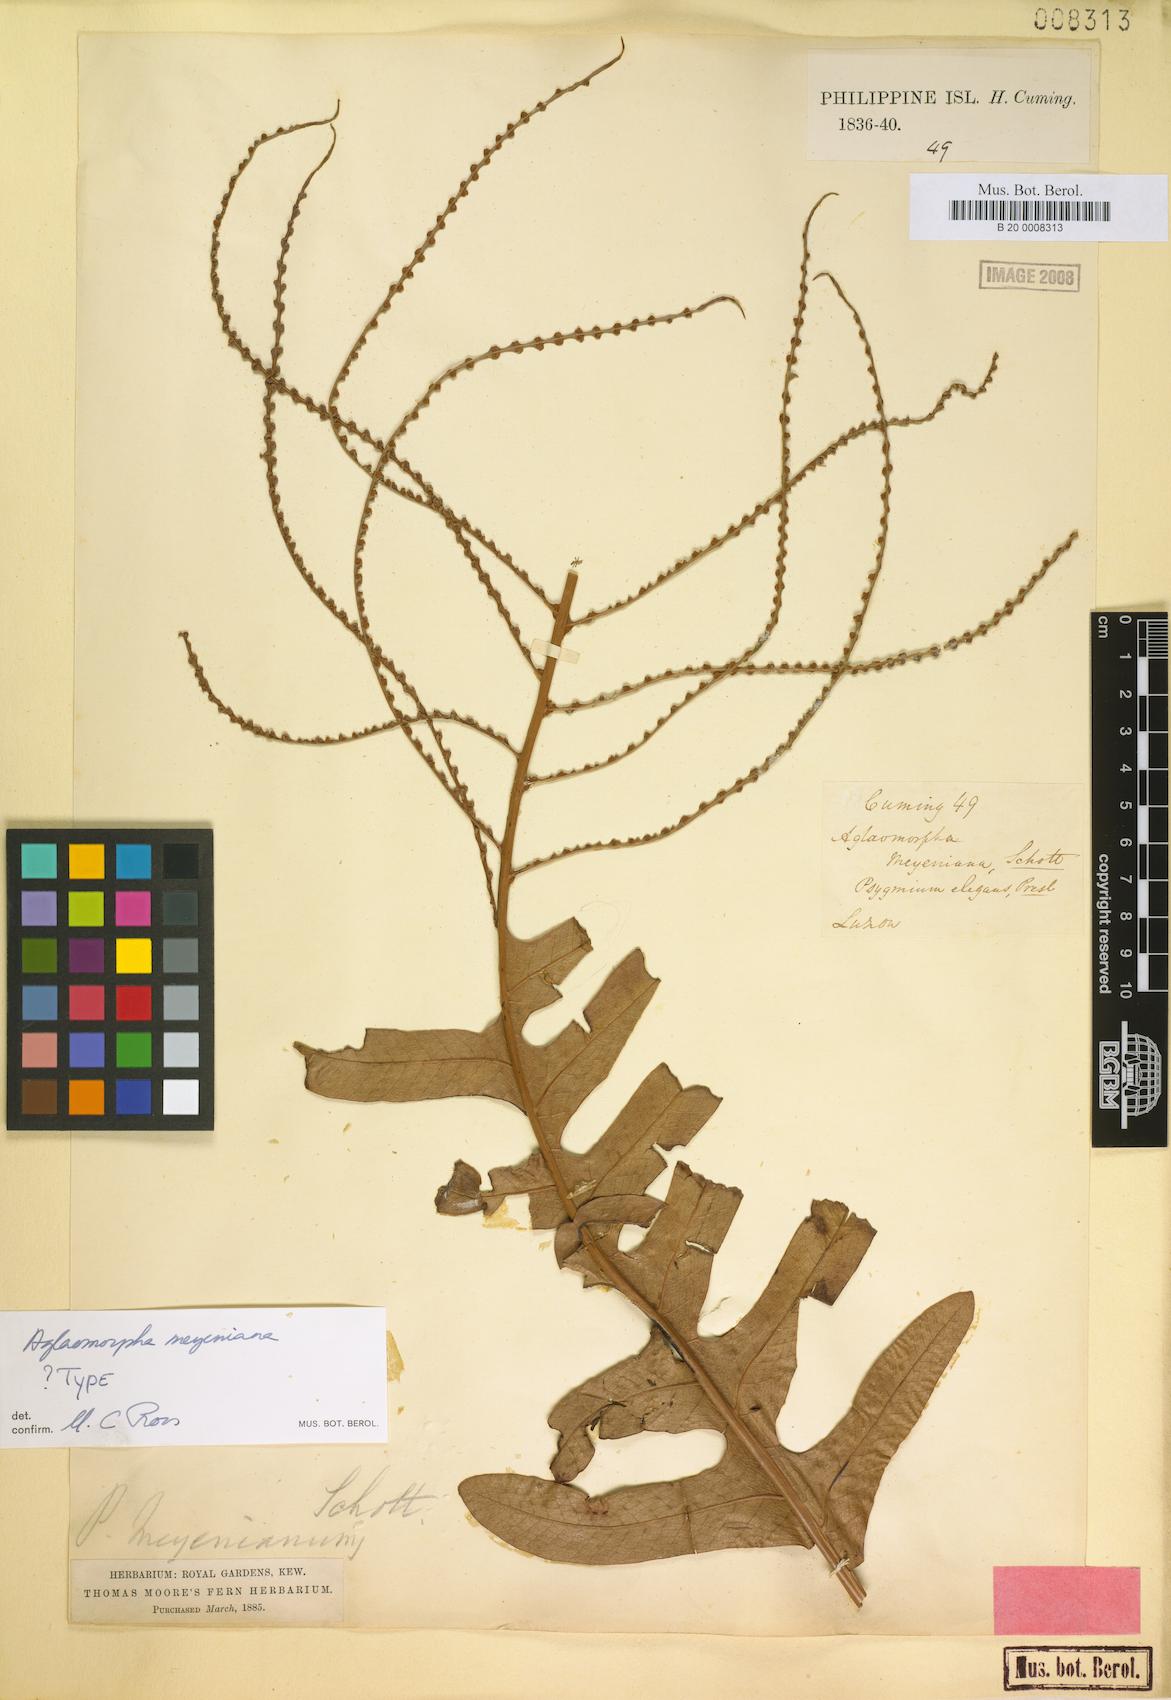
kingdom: Plantae
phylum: Tracheophyta
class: Polypodiopsida
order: Polypodiales
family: Polypodiaceae
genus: Drynaria
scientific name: Drynaria meyeniana
